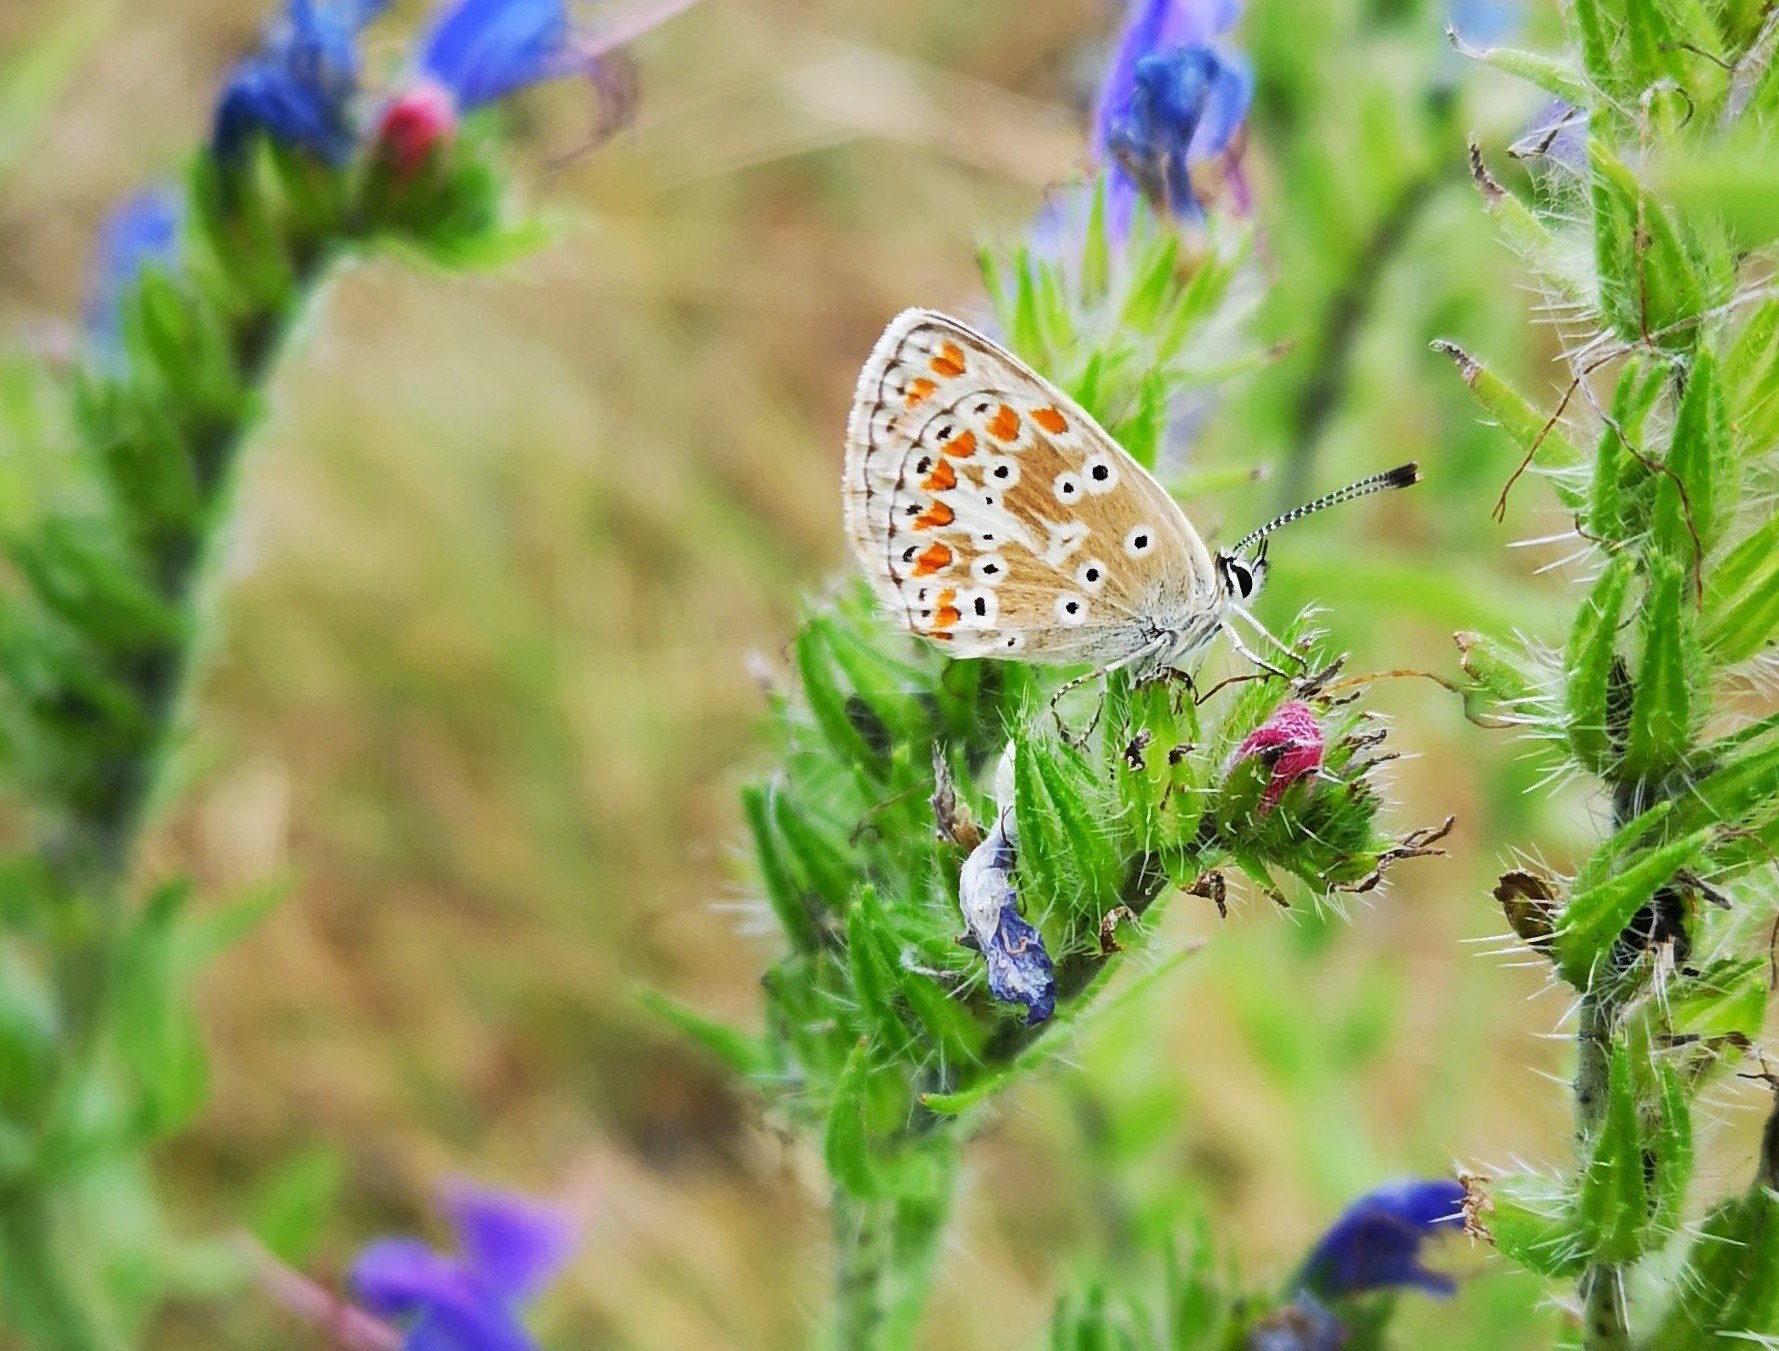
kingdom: Animalia
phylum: Arthropoda
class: Insecta
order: Lepidoptera
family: Lycaenidae
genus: Aricia
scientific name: Aricia agestis
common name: Rødplettet blåfugl
